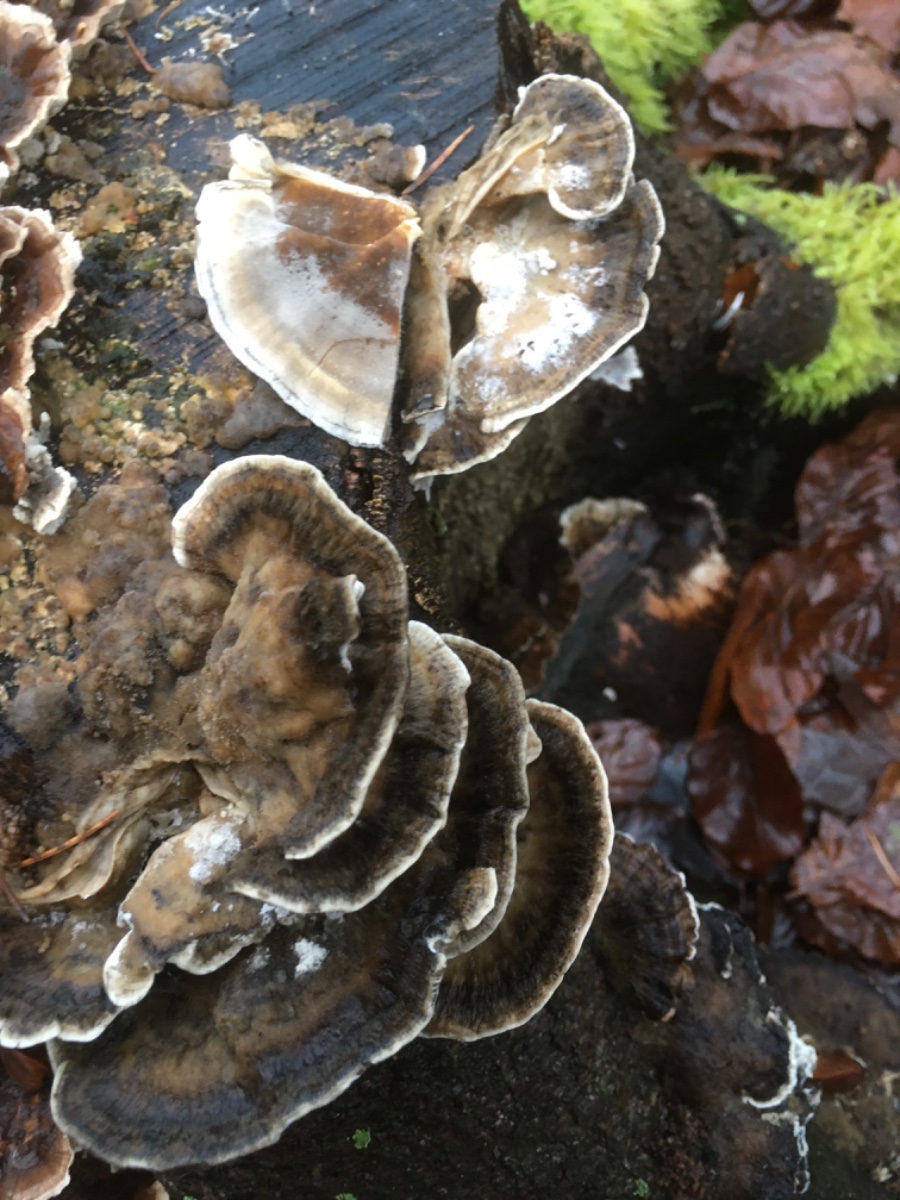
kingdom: Fungi
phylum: Basidiomycota
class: Agaricomycetes
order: Polyporales
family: Phanerochaetaceae
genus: Bjerkandera
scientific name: Bjerkandera adusta
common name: sveden sodporesvamp
